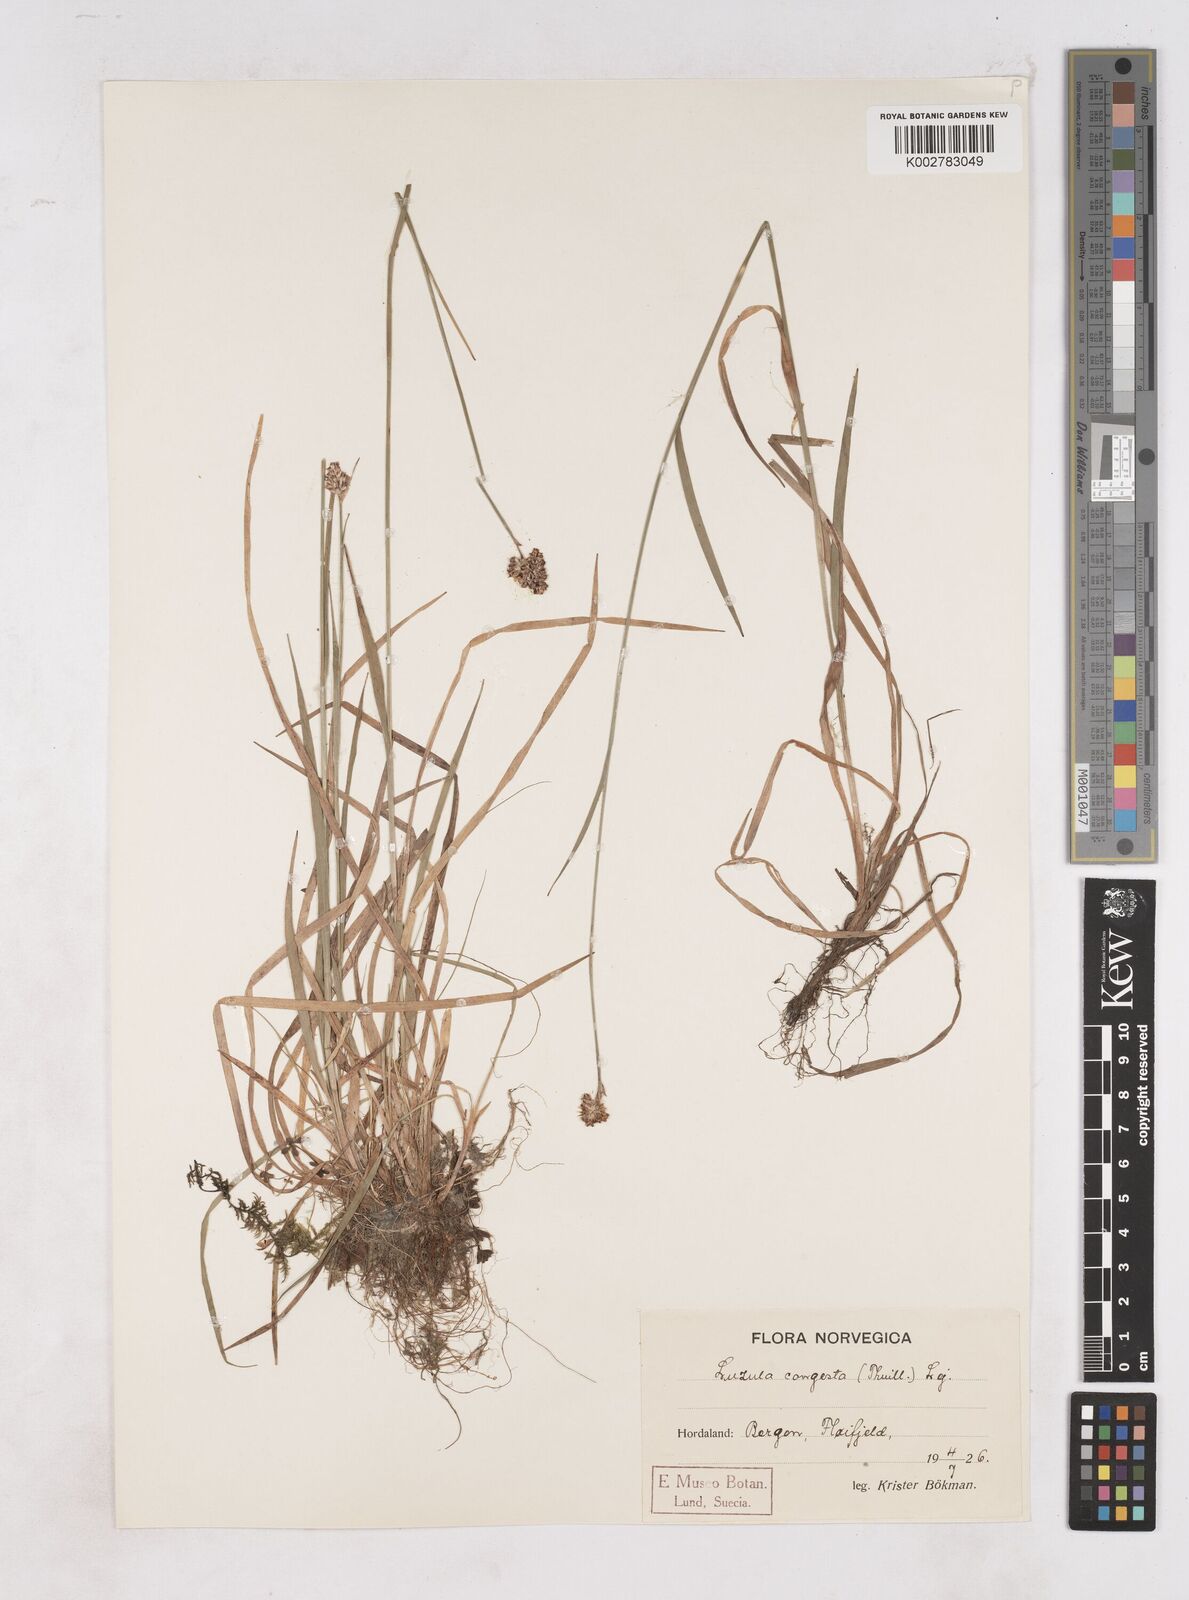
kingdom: Plantae
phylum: Tracheophyta
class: Liliopsida
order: Poales
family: Juncaceae
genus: Luzula
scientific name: Luzula campestris
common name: Field wood-rush
